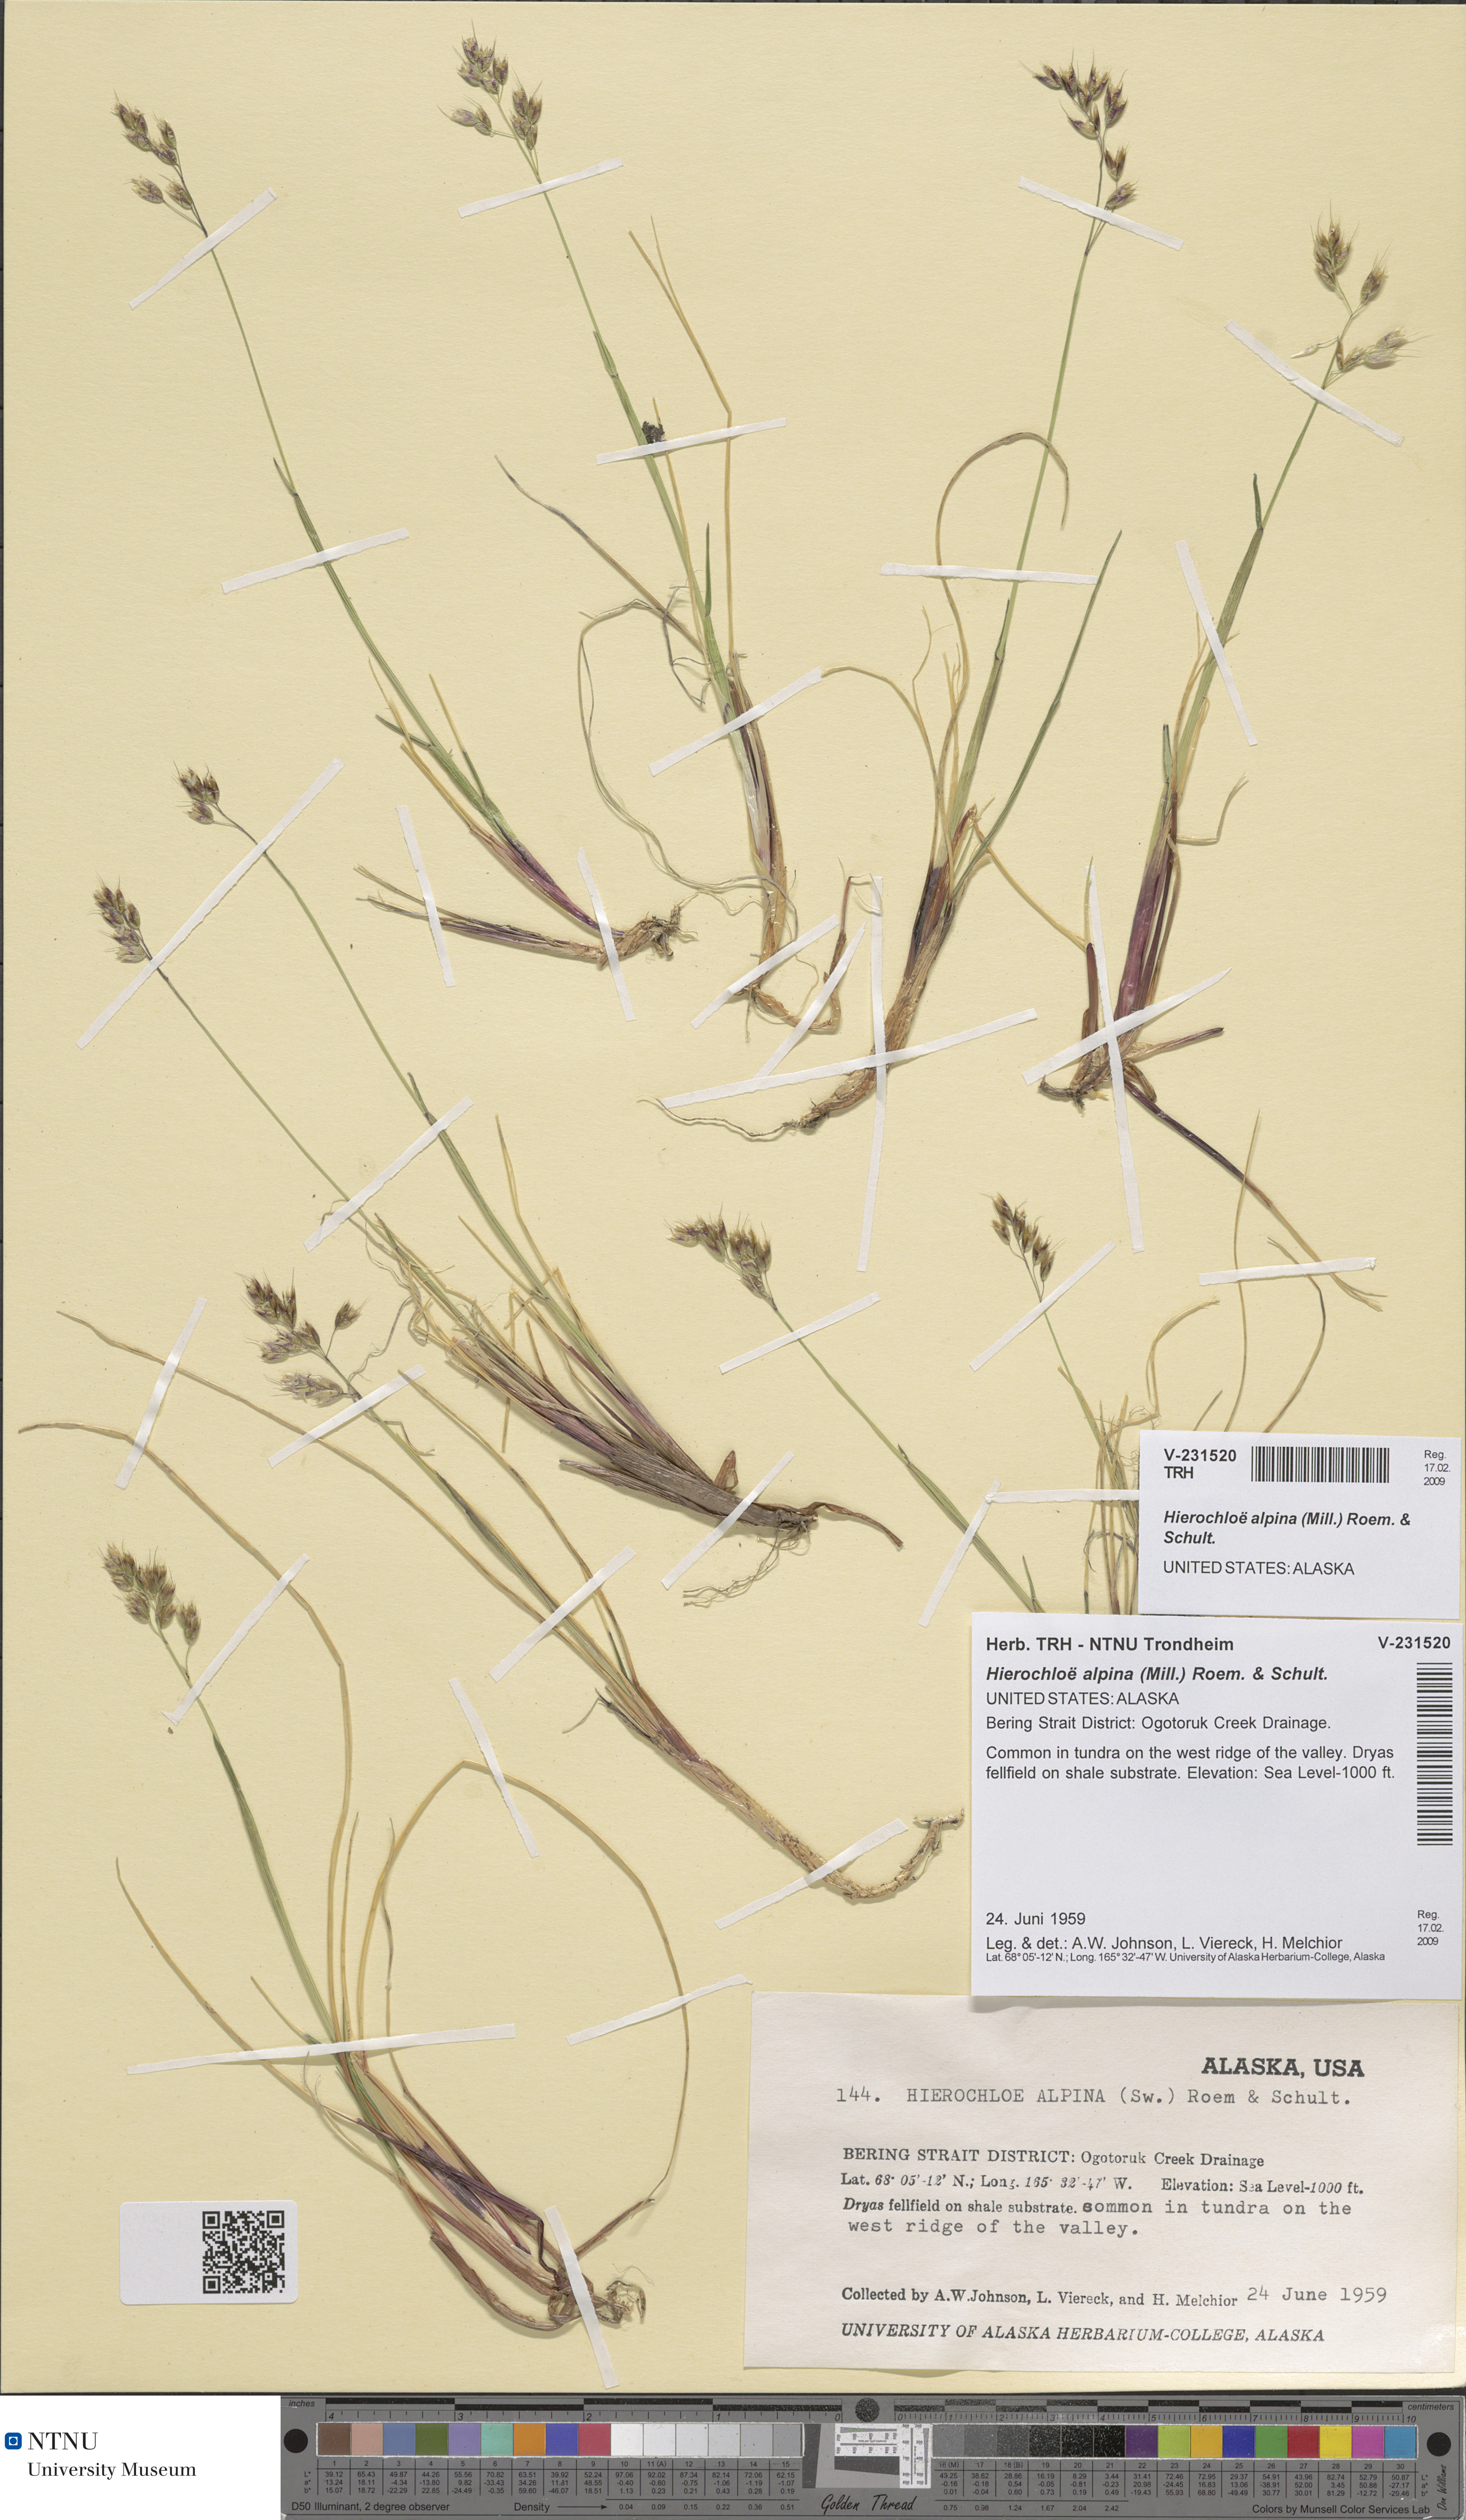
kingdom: Plantae
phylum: Tracheophyta
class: Liliopsida
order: Poales
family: Poaceae
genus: Anthoxanthum
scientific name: Anthoxanthum monticola
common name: Alpine sweetgrass
